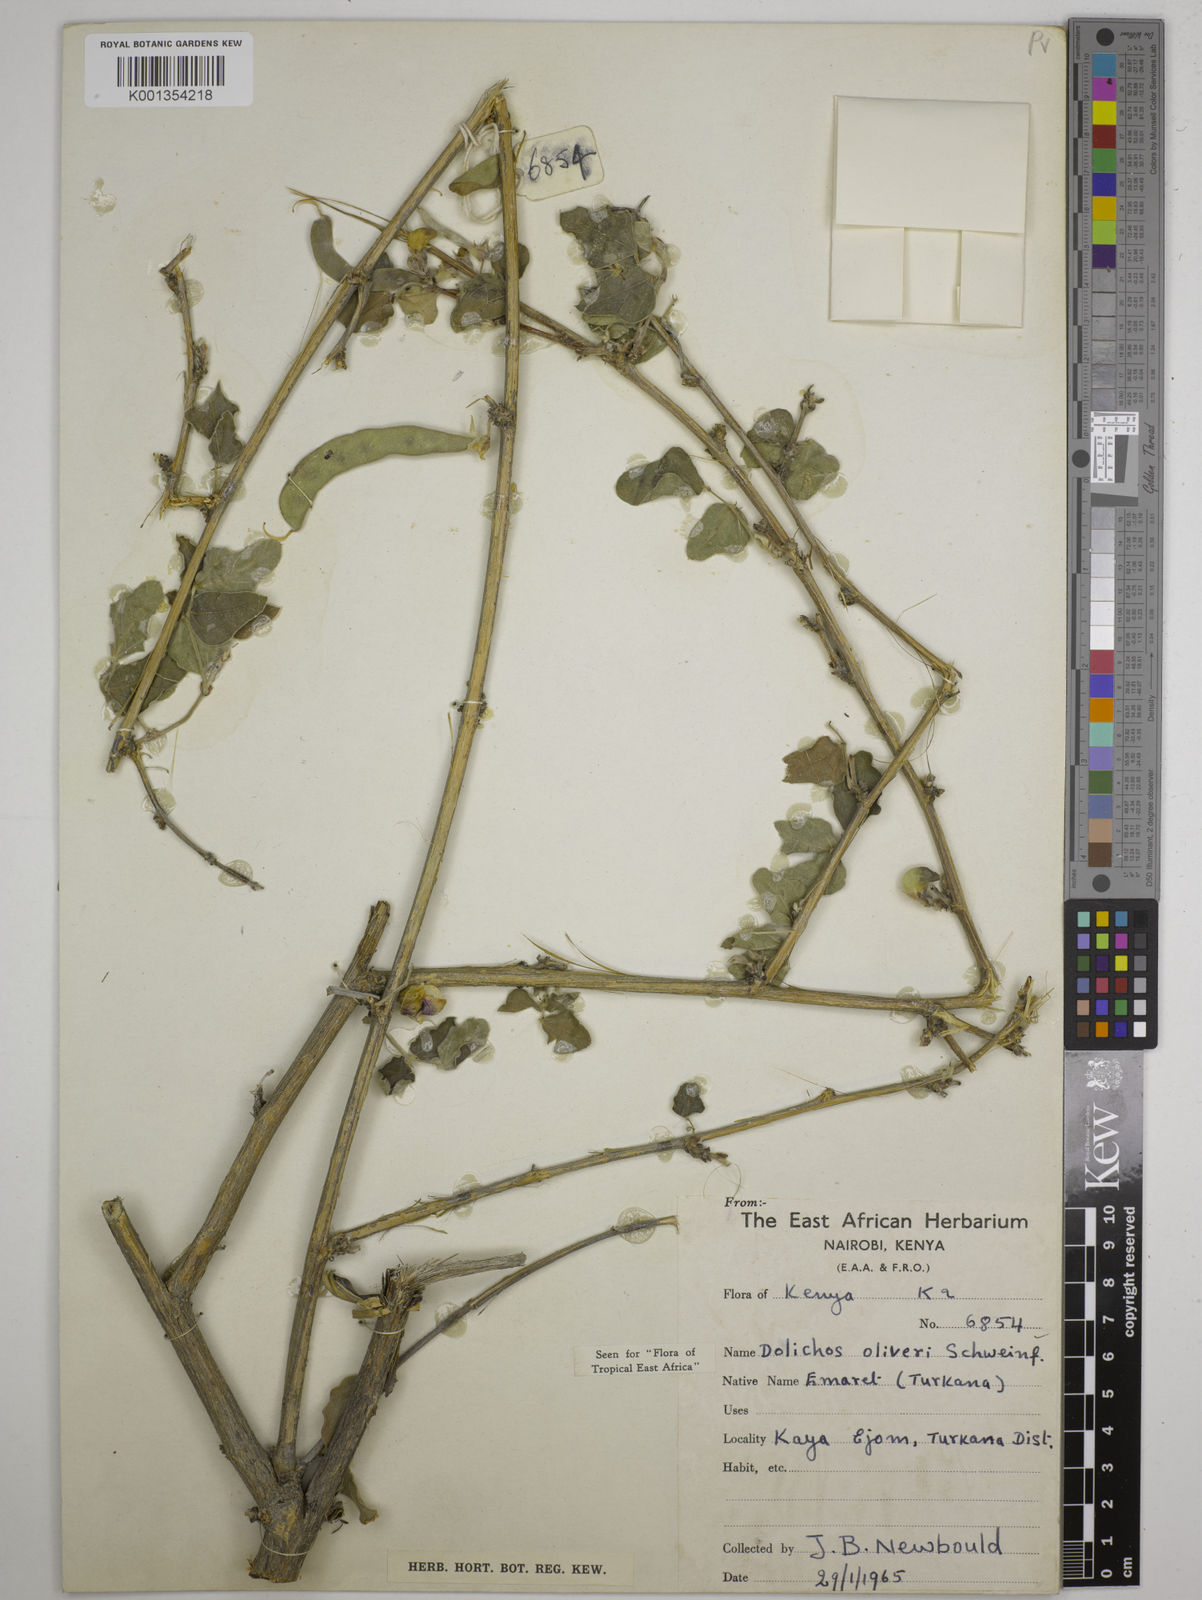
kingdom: Plantae
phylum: Tracheophyta
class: Magnoliopsida
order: Fabales
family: Fabaceae
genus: Dolichos
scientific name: Dolichos oliveri
